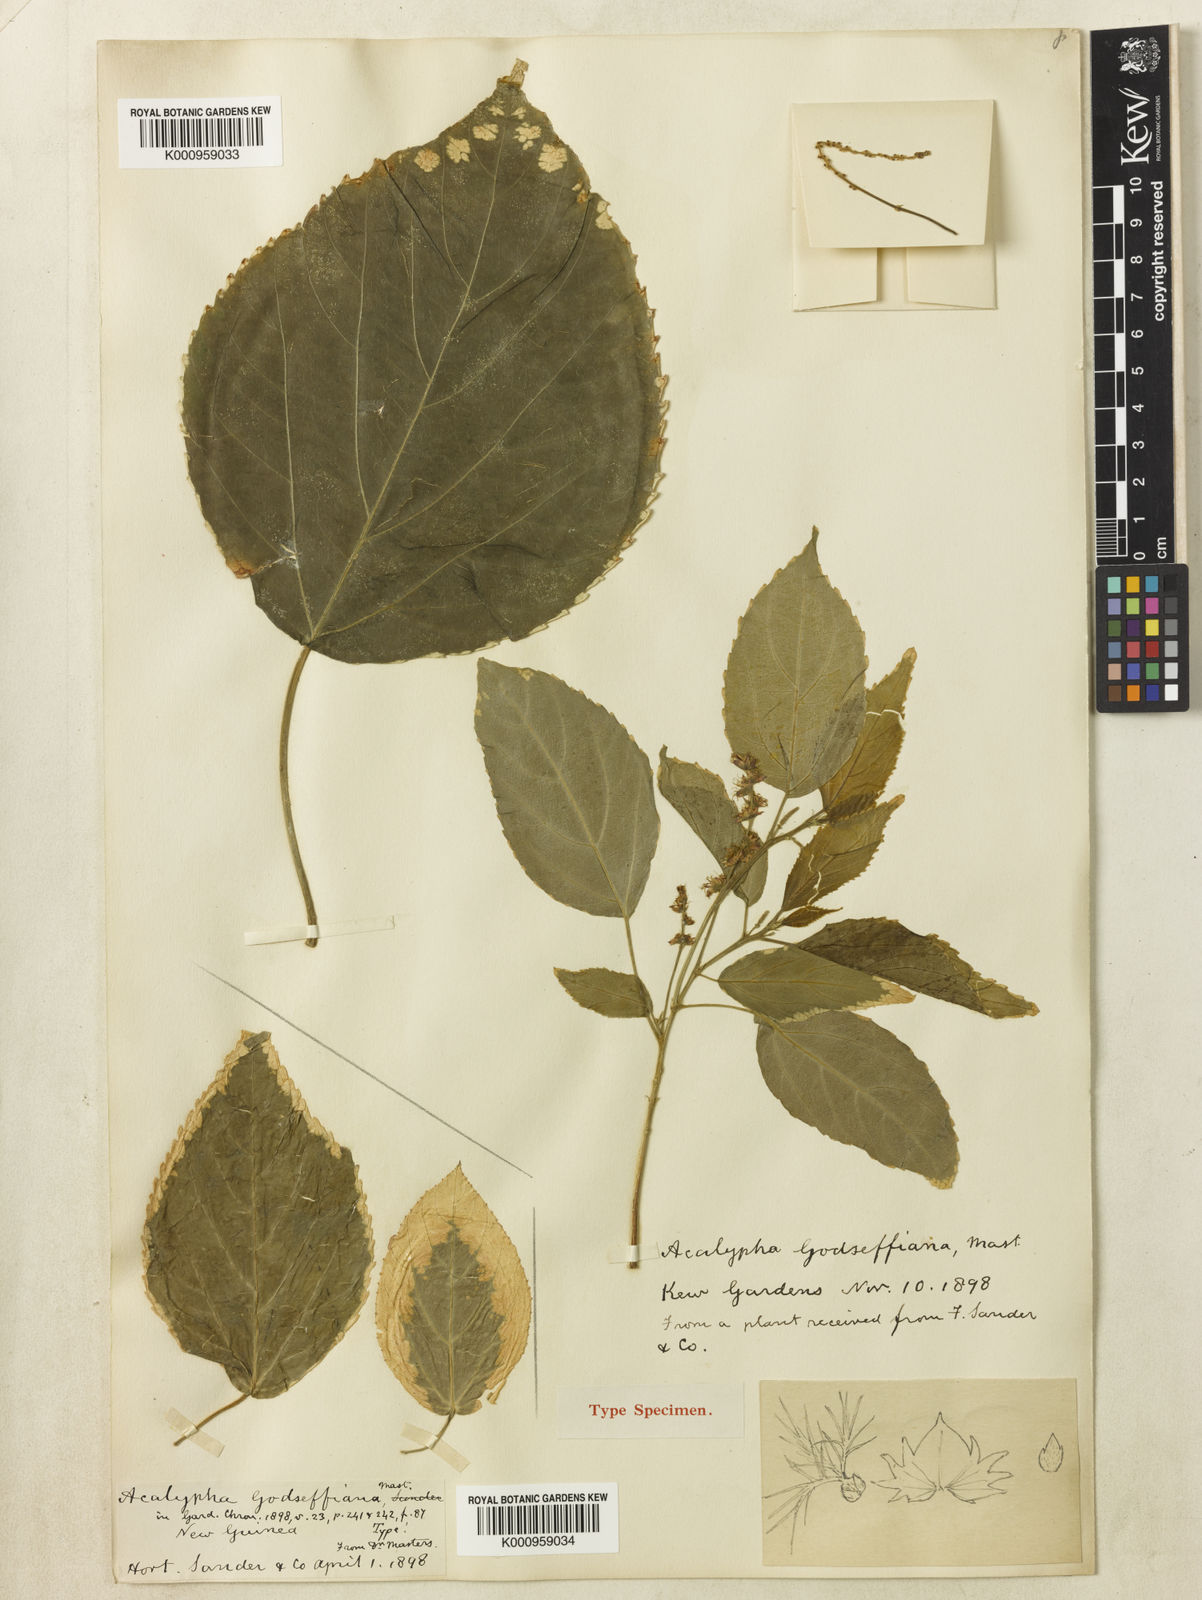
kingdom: Plantae
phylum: Tracheophyta
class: Magnoliopsida
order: Malpighiales
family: Euphorbiaceae
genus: Acalypha
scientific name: Acalypha wilkesiana
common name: Jacob's coat
